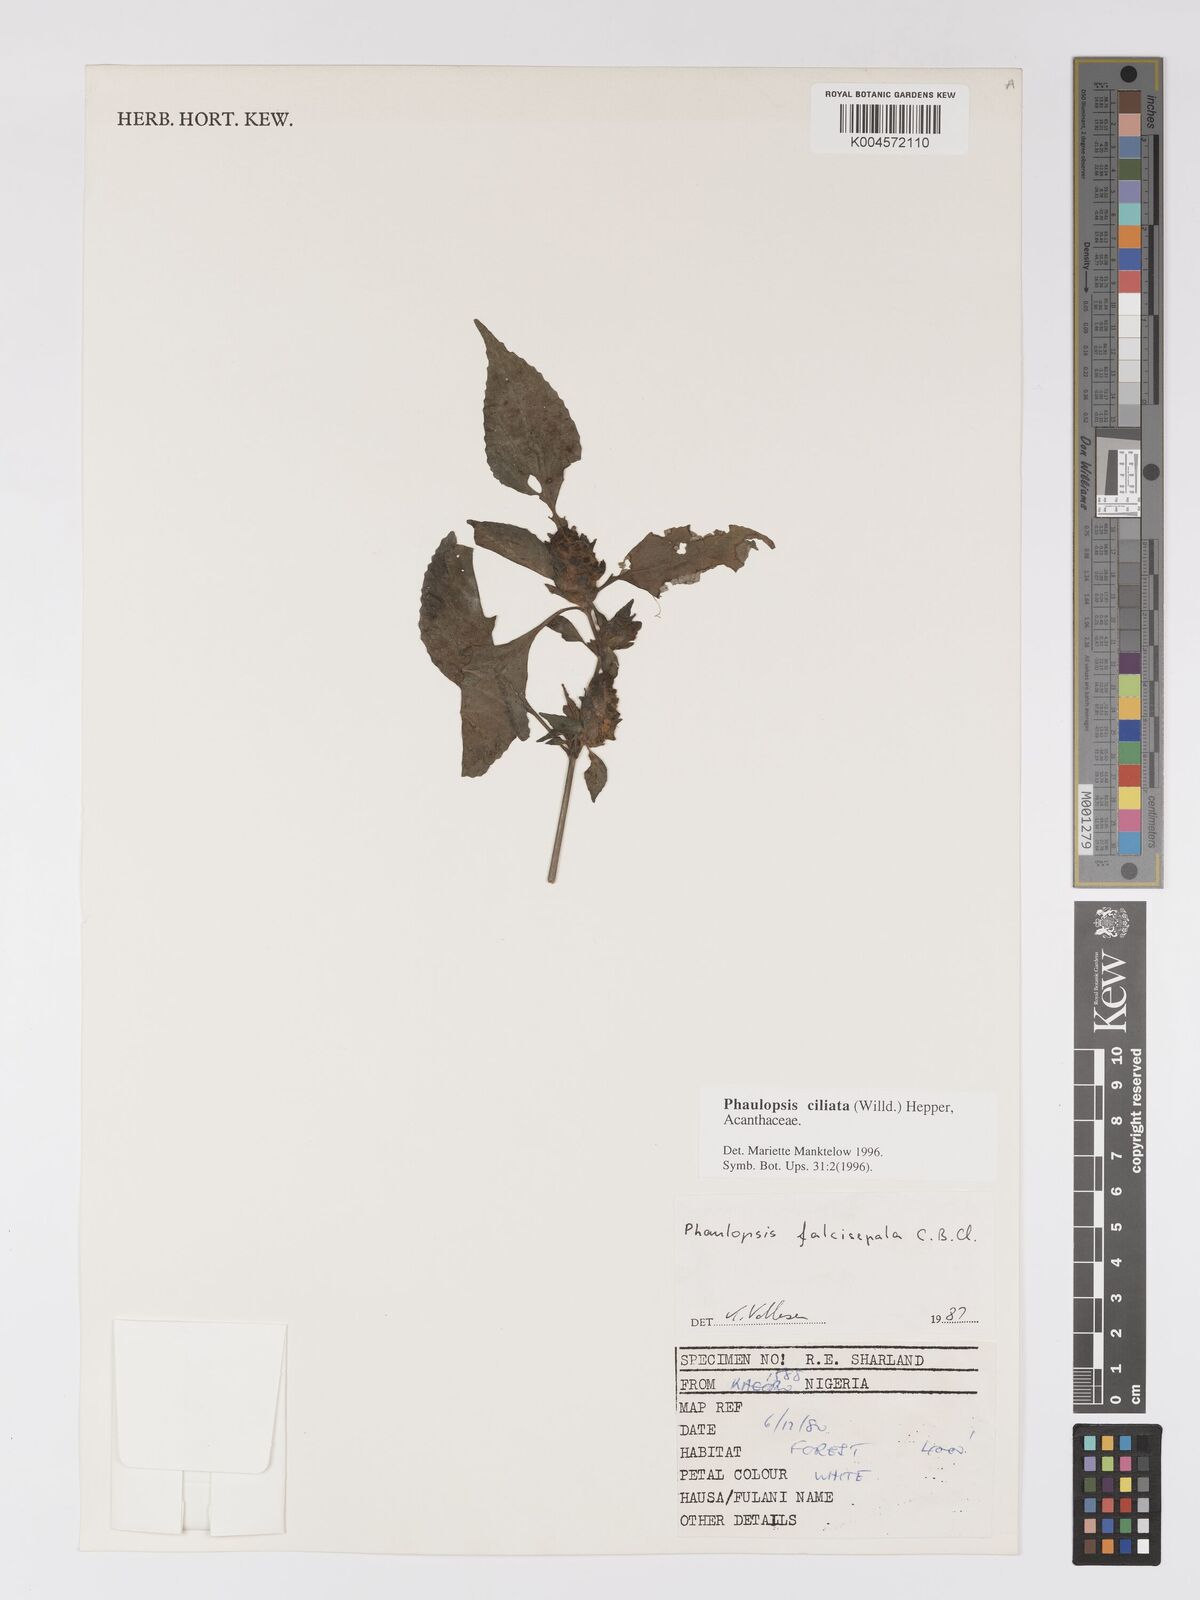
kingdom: Plantae
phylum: Tracheophyta
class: Magnoliopsida
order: Lamiales
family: Acanthaceae
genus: Phaulopsis
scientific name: Phaulopsis ciliata
